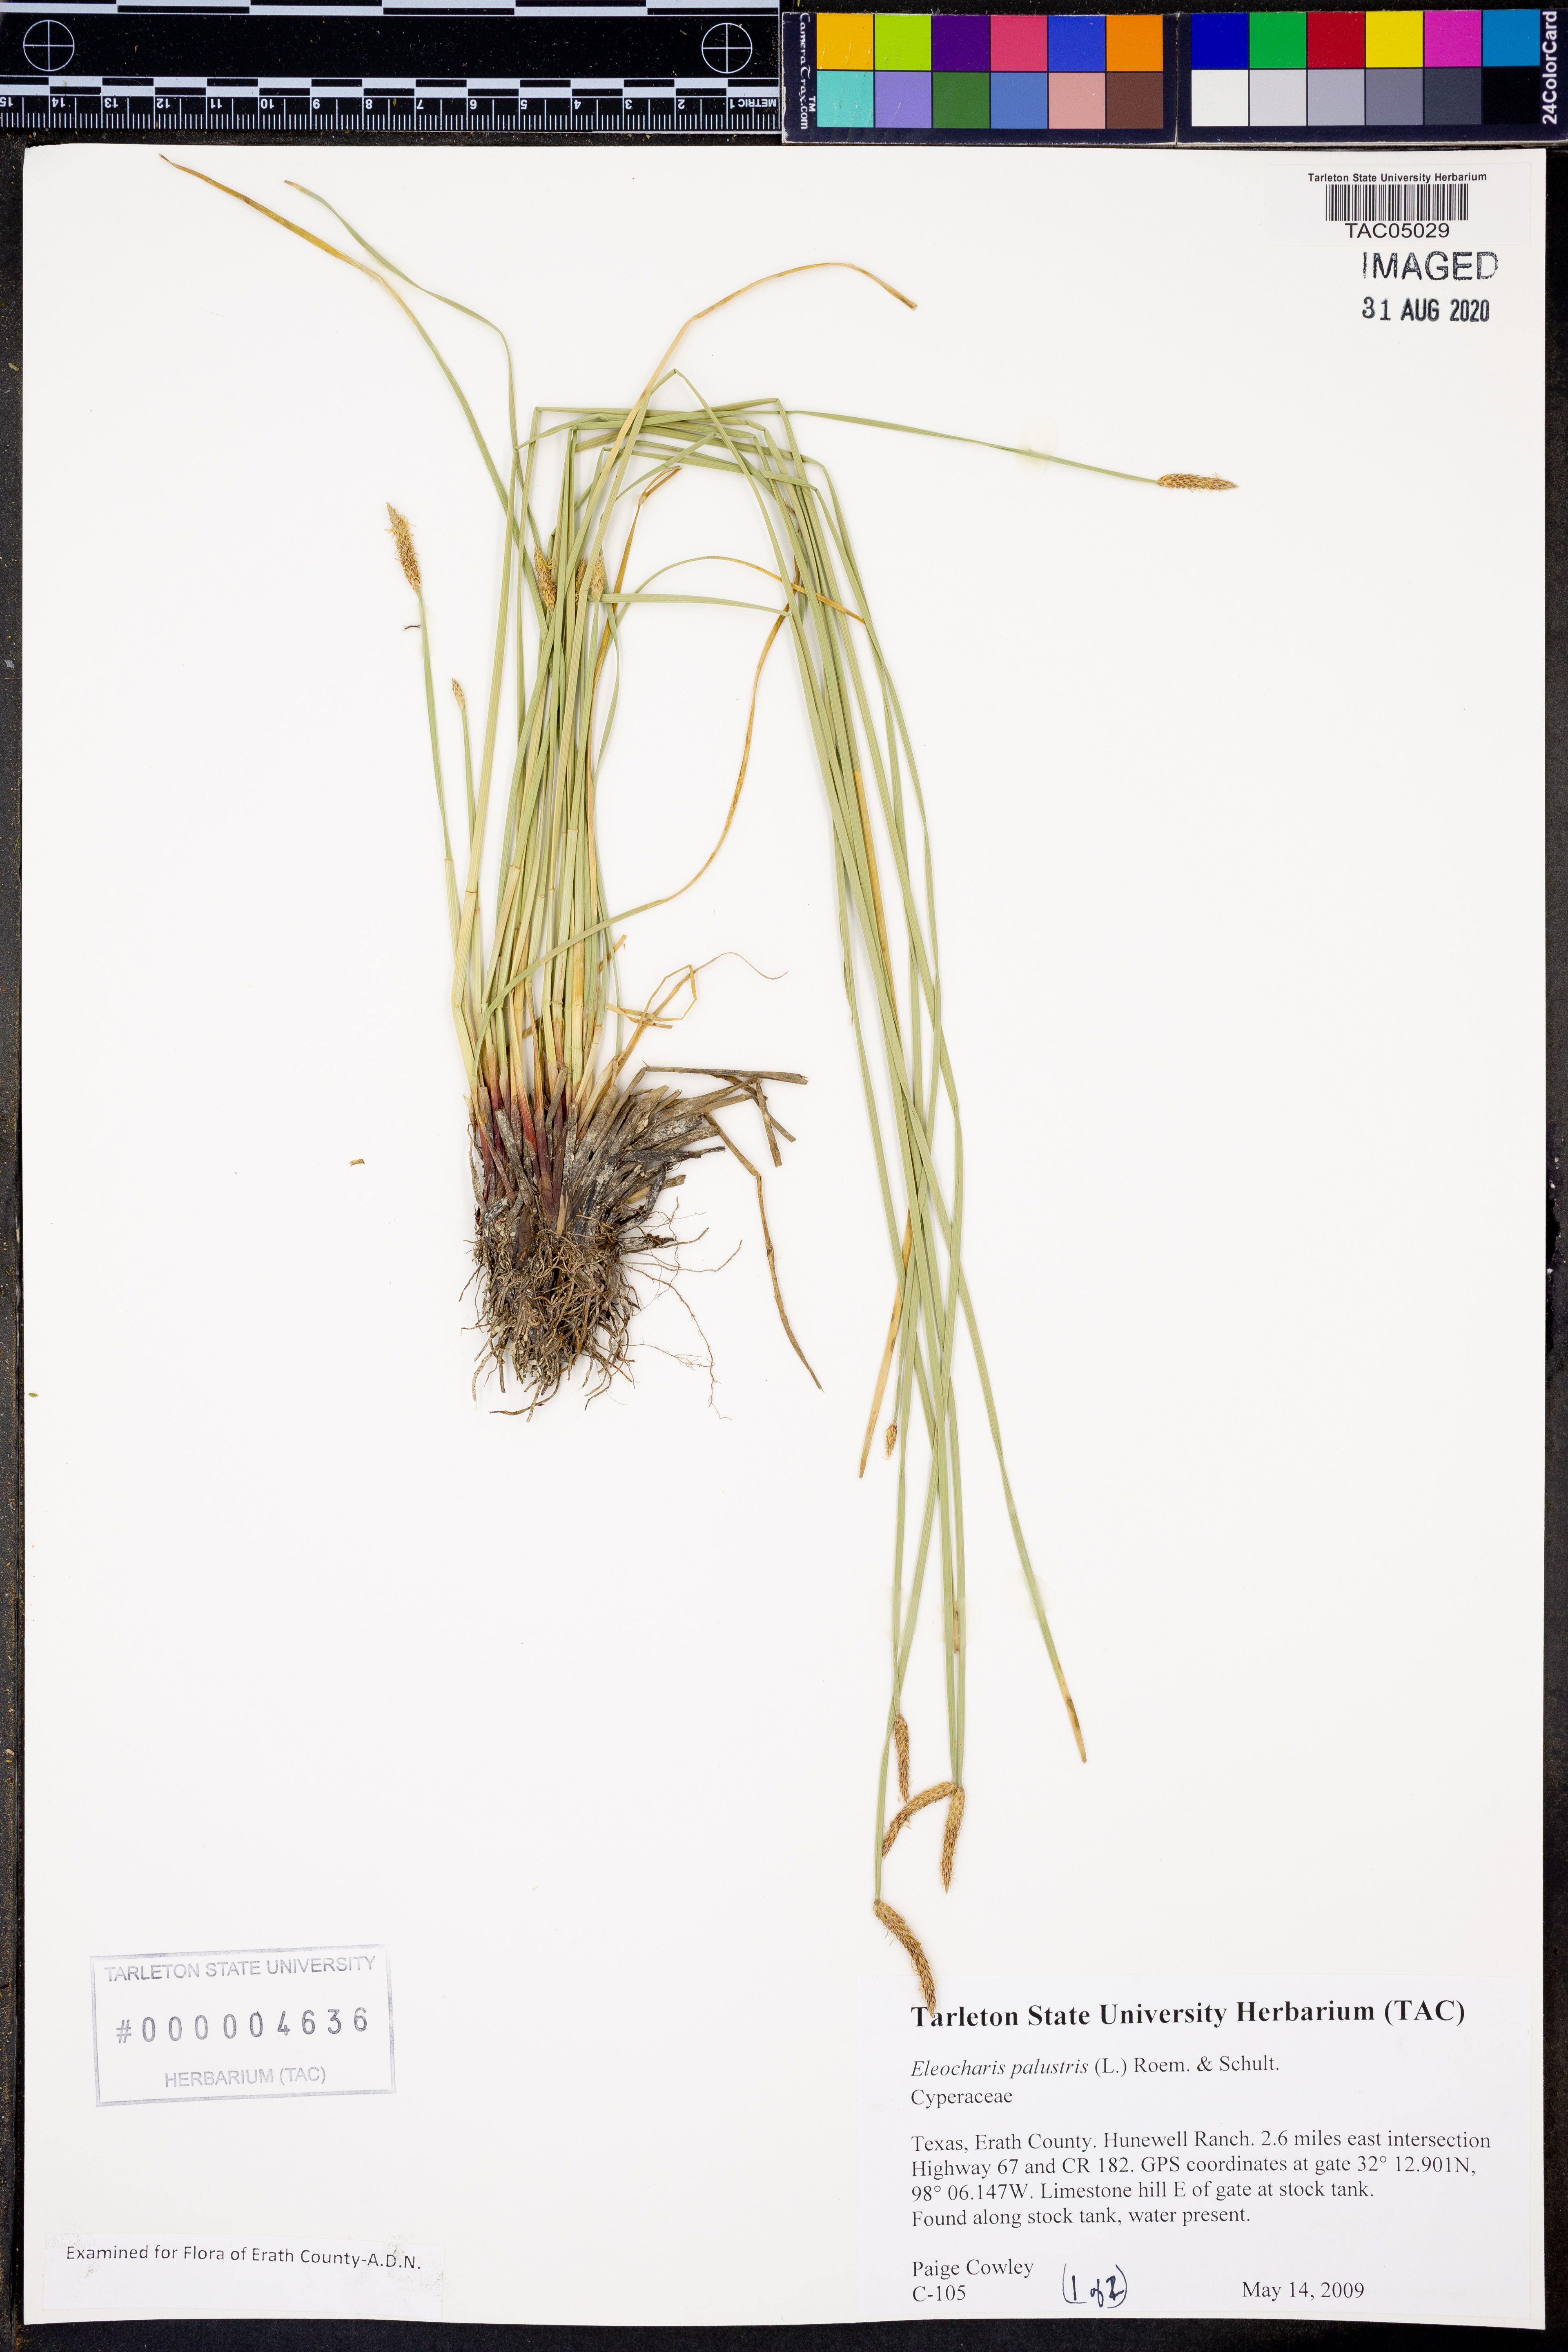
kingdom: Plantae
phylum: Tracheophyta
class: Liliopsida
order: Poales
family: Cyperaceae
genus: Eleocharis
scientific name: Eleocharis palustris
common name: Common spike-rush
